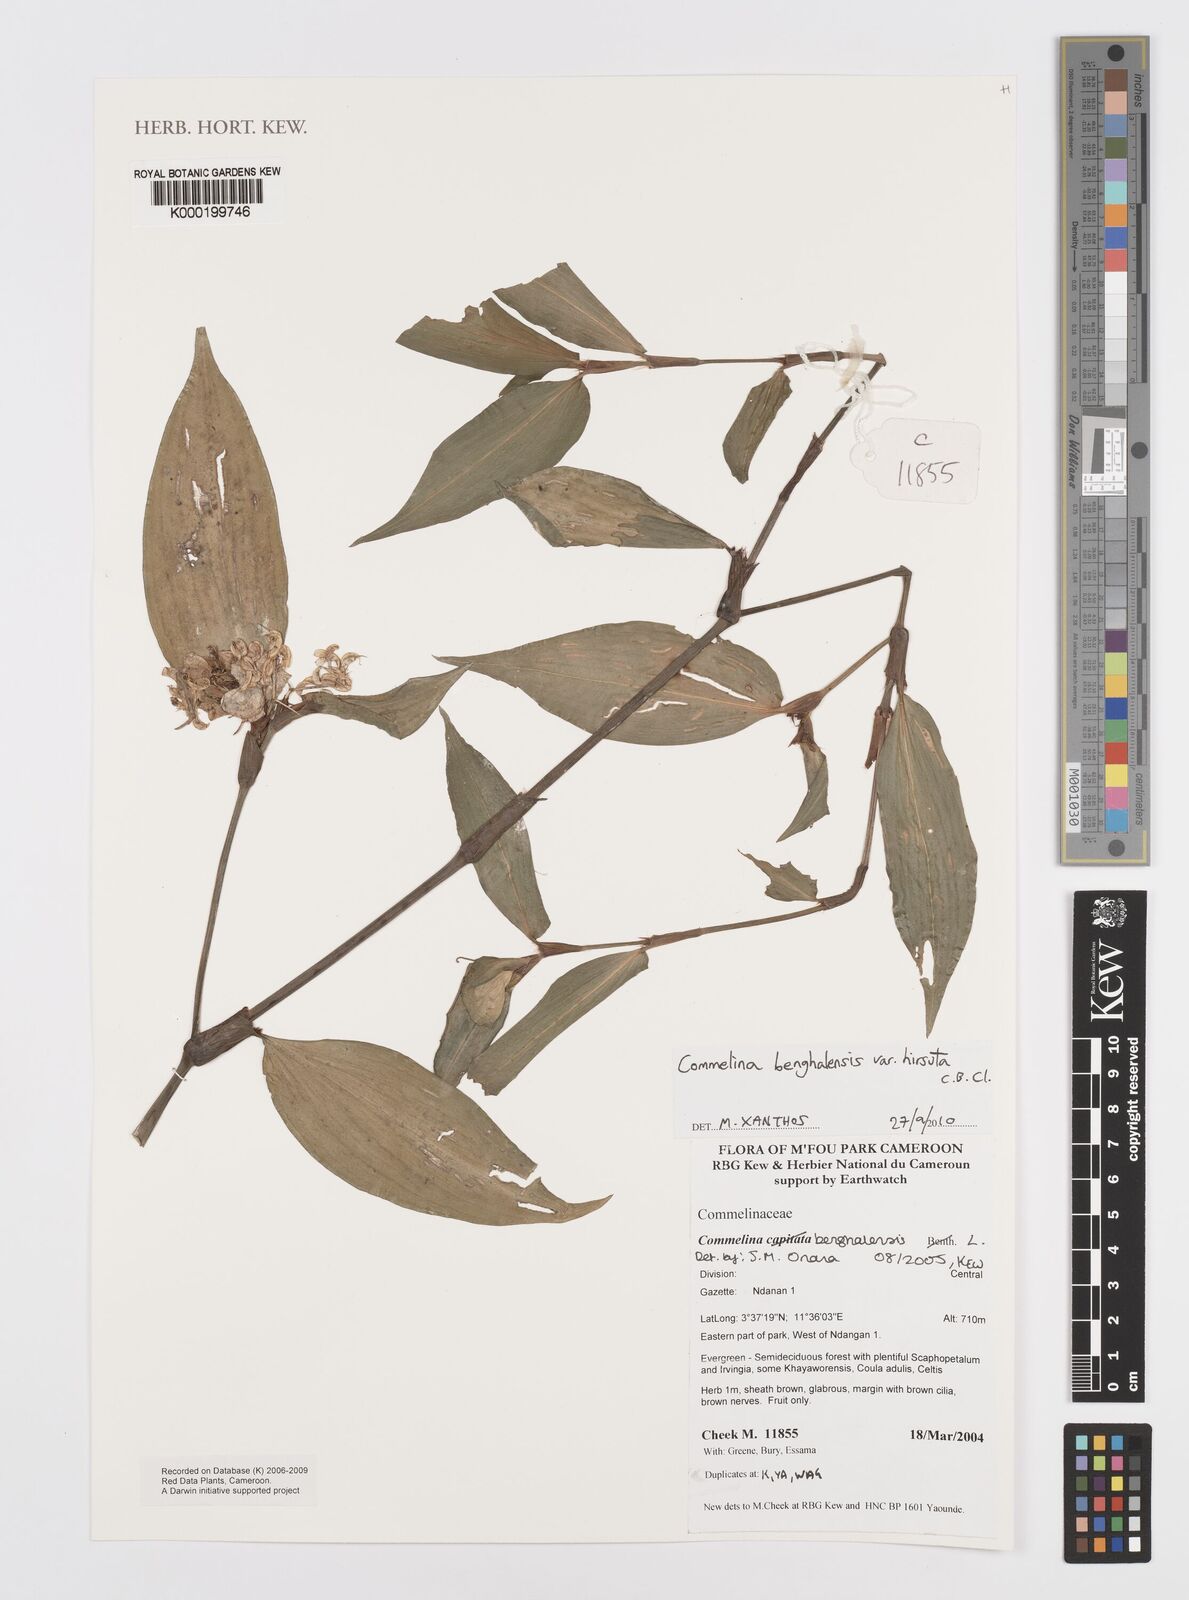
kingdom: Plantae
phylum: Tracheophyta
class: Liliopsida
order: Commelinales
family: Commelinaceae
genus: Commelina
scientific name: Commelina benghalensis
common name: Jio
